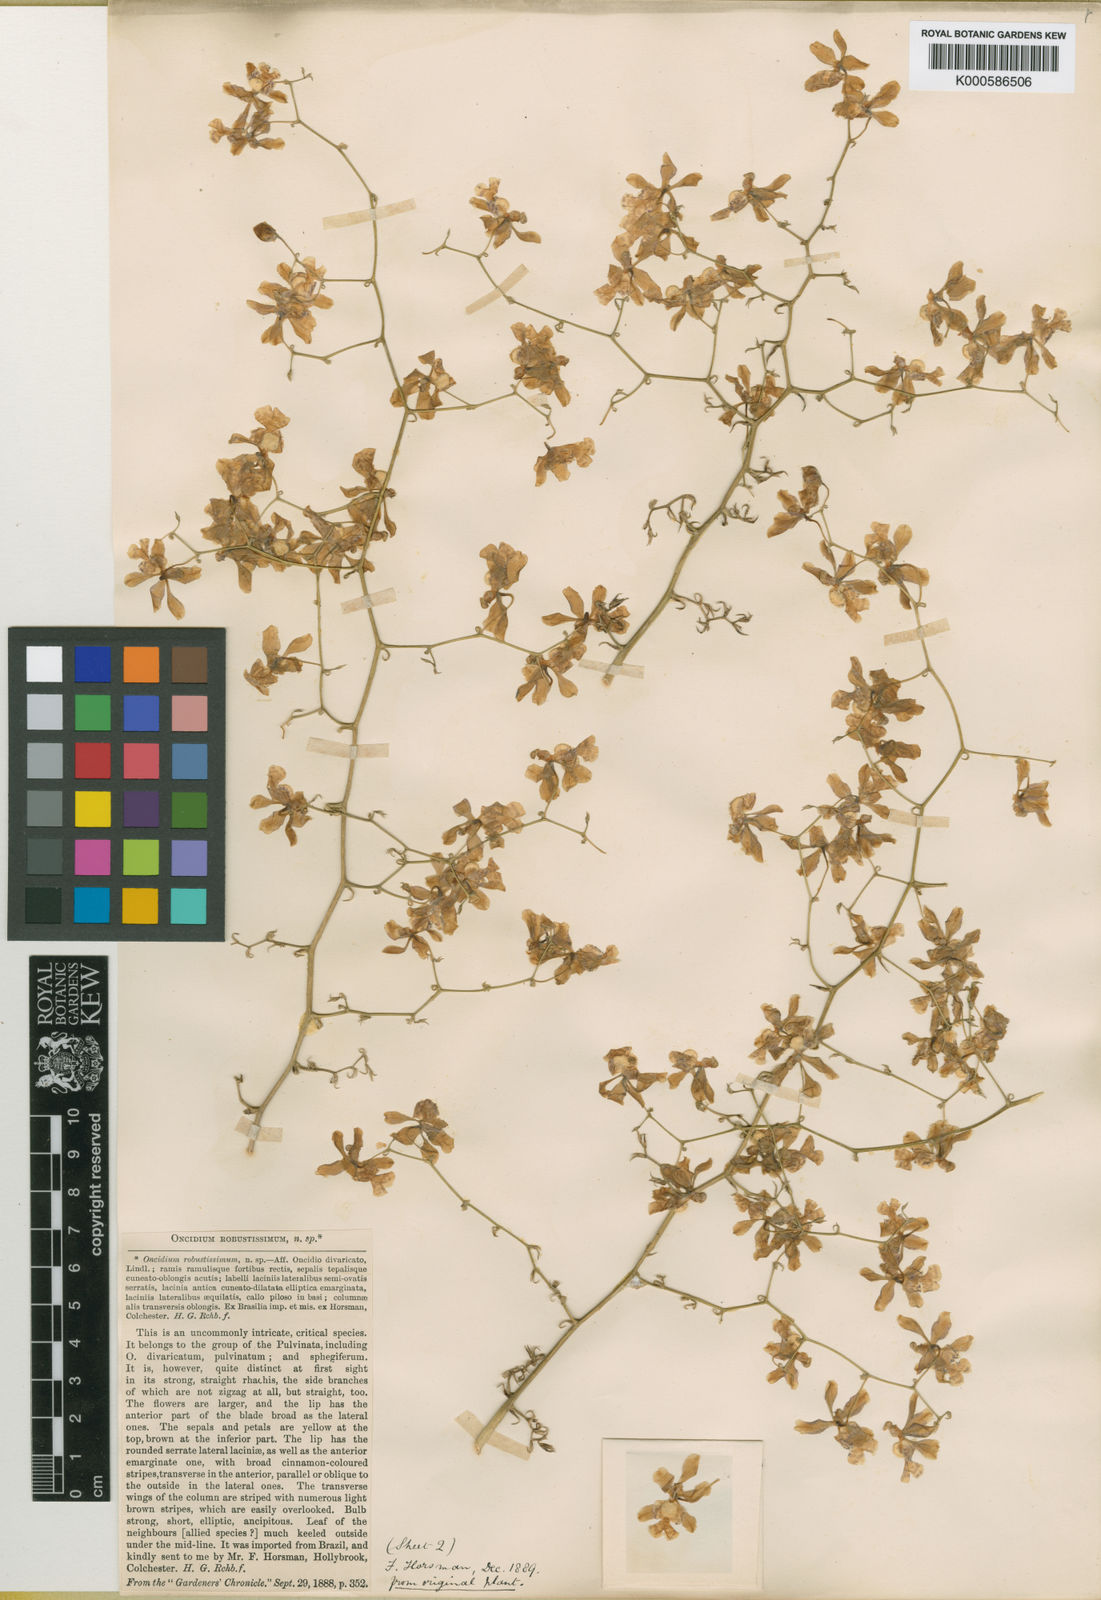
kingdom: Plantae
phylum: Tracheophyta
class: Liliopsida
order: Asparagales
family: Orchidaceae
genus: Grandiphyllum
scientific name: Grandiphyllum divaricatum
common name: Mule-ear orchid
